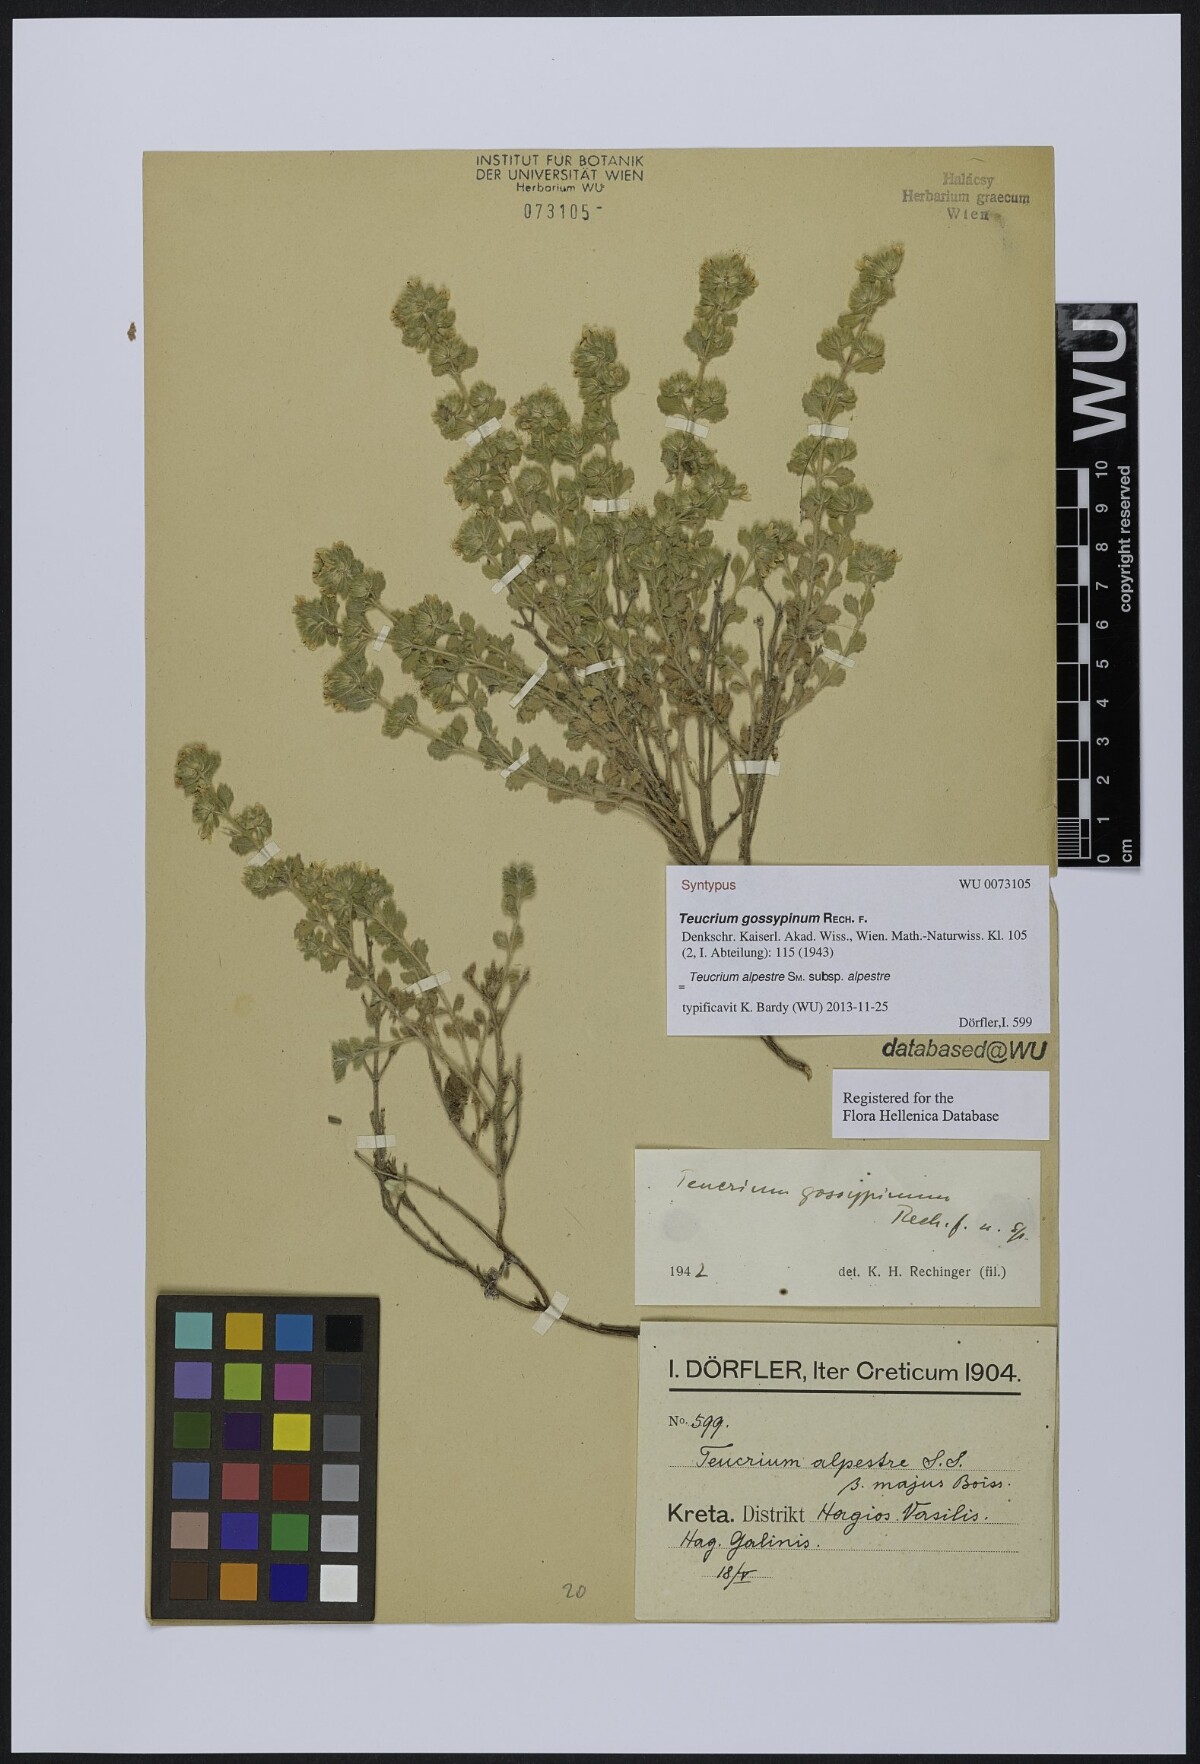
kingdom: Plantae
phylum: Tracheophyta
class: Magnoliopsida
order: Lamiales
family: Lamiaceae
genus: Teucrium
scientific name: Teucrium alpestre
